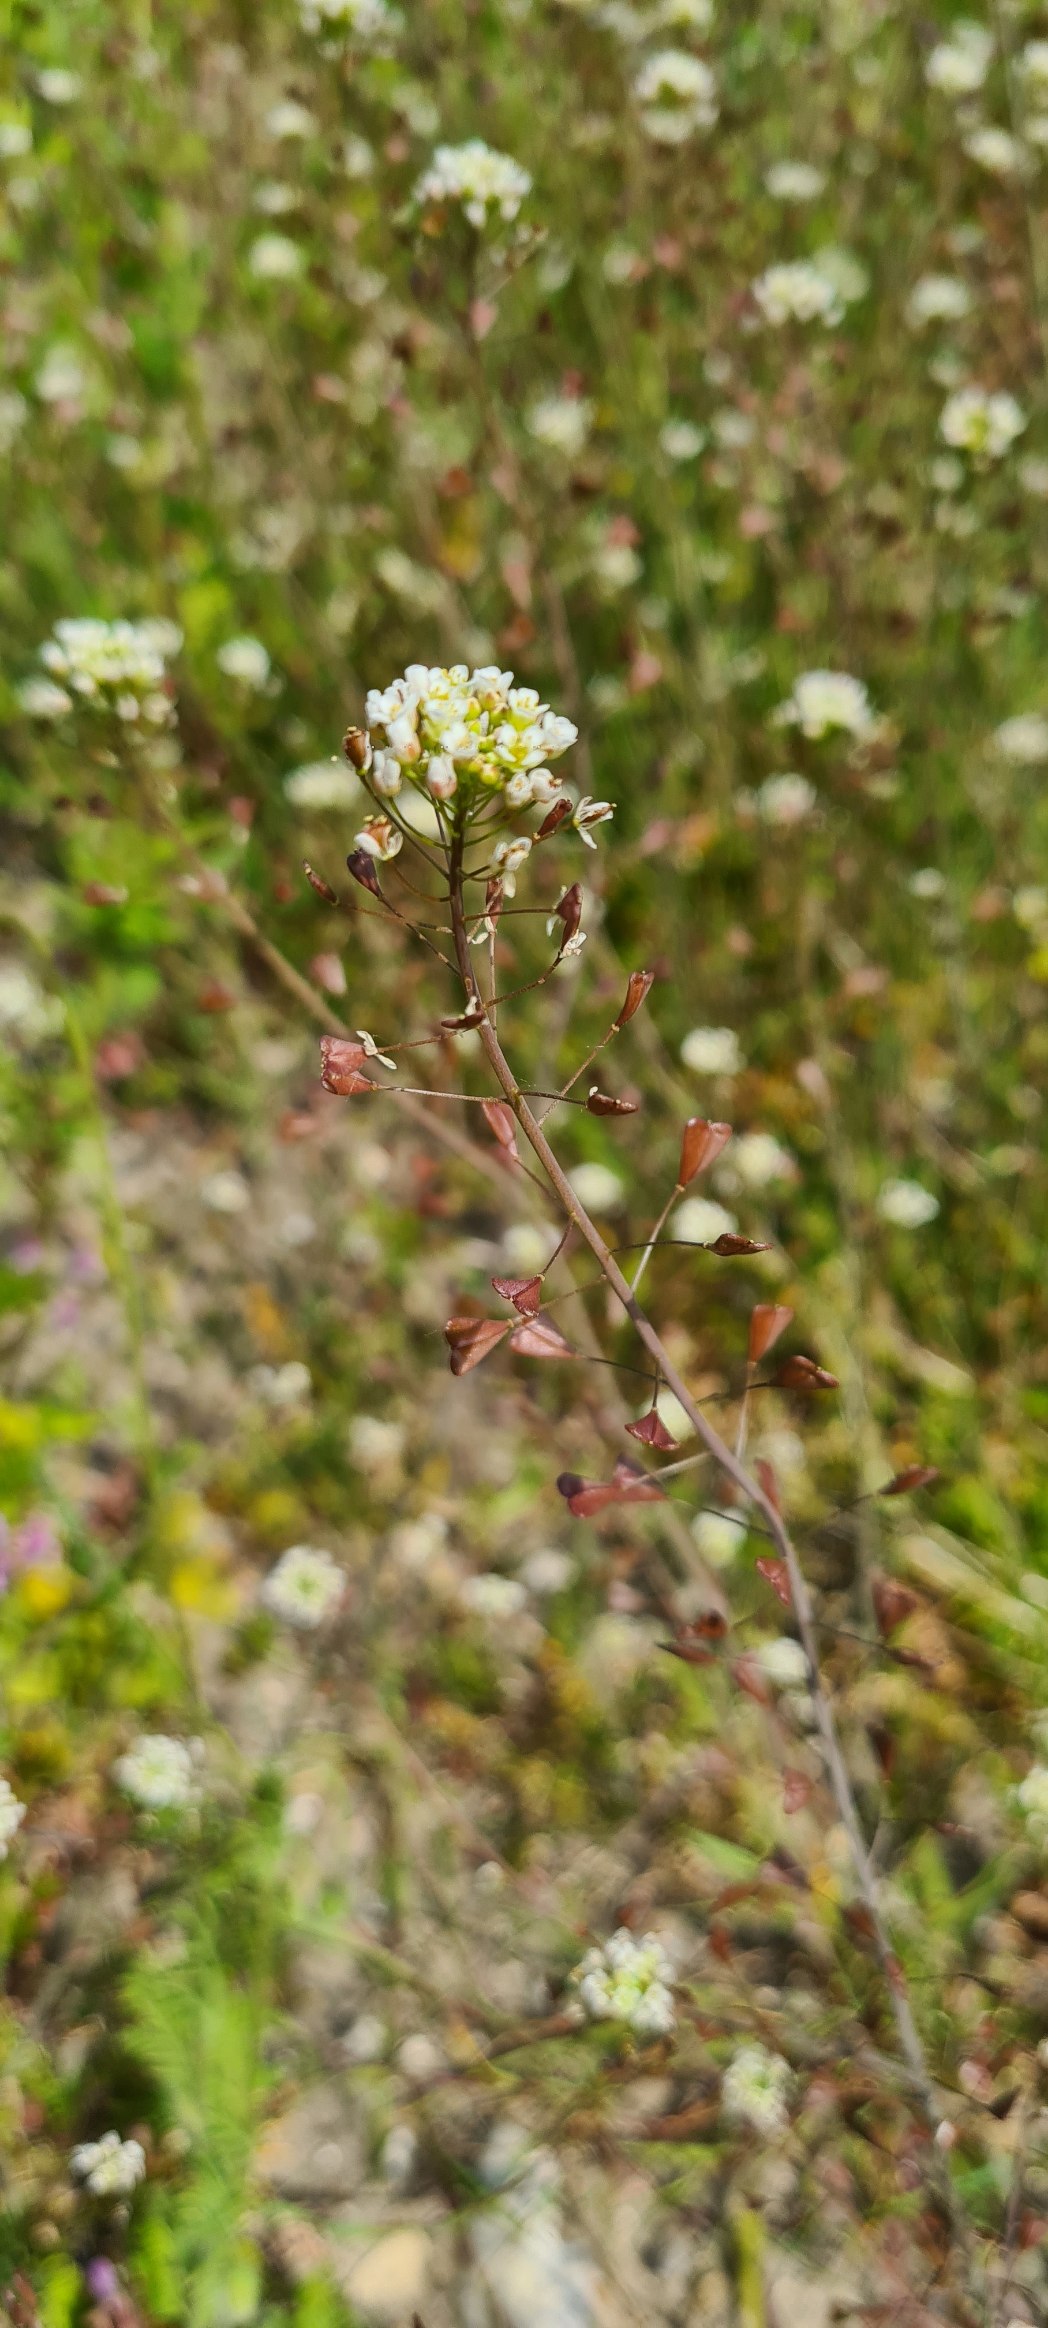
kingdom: Plantae
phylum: Tracheophyta
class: Magnoliopsida
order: Brassicales
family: Brassicaceae
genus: Capsella
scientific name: Capsella bursa-pastoris
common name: Hyrdetaske
